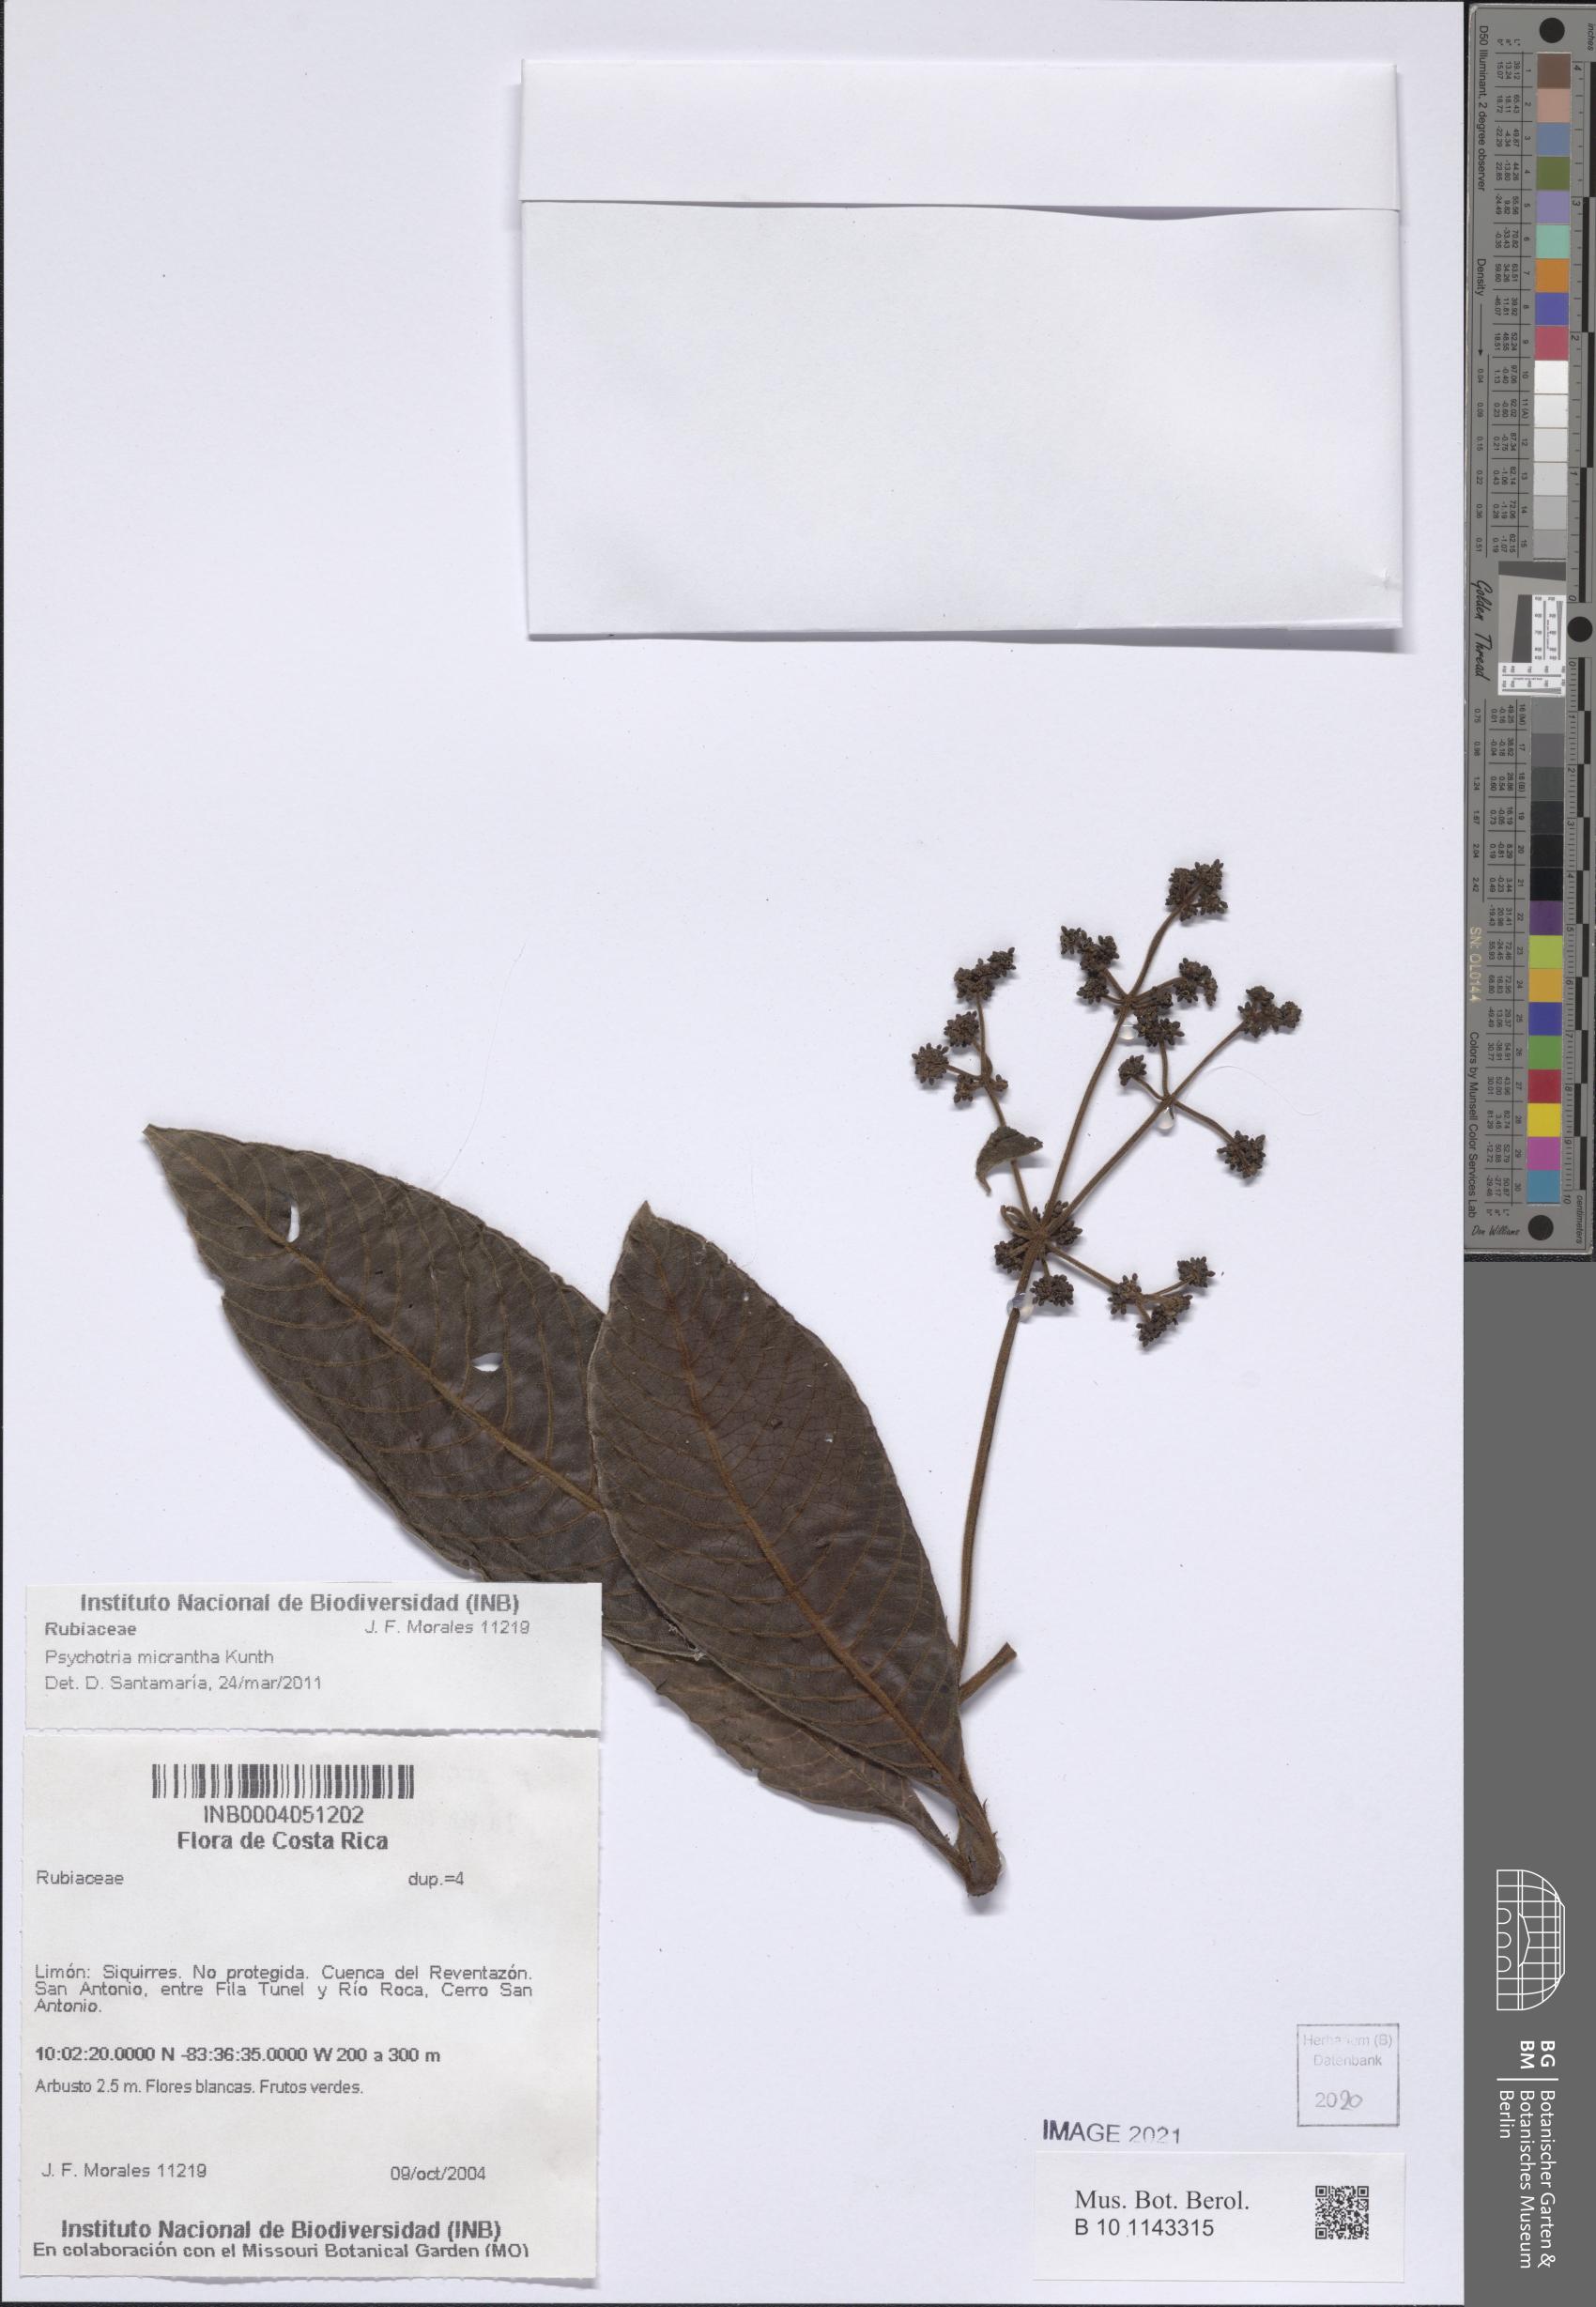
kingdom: Plantae
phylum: Tracheophyta
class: Magnoliopsida
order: Gentianales
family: Rubiaceae
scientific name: Rubiaceae
